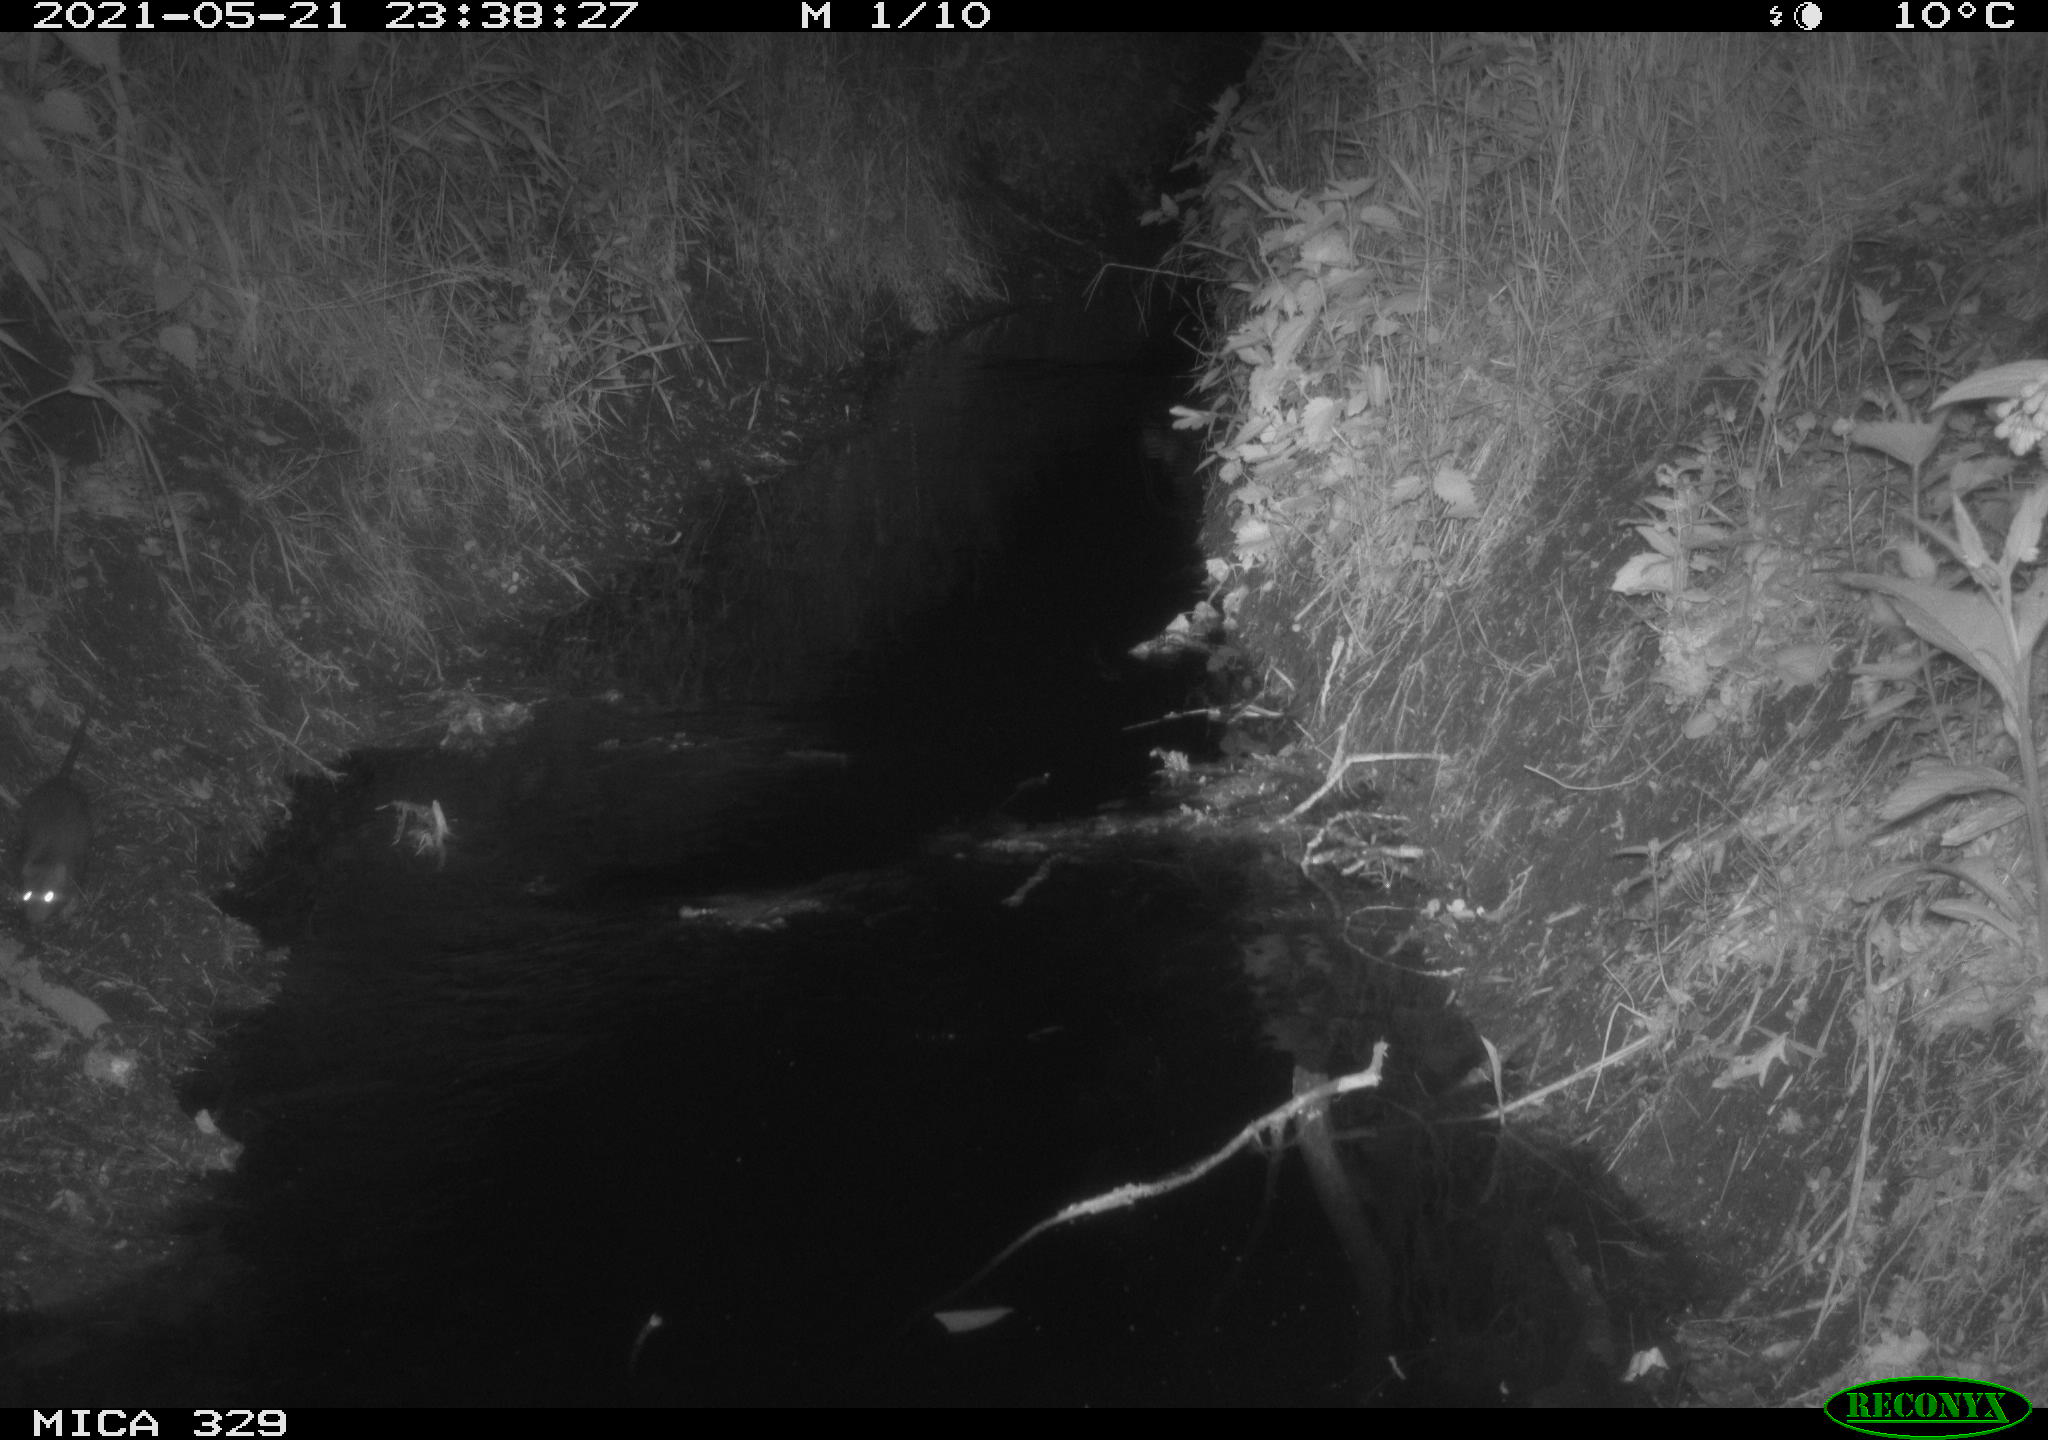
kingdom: Animalia
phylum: Chordata
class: Mammalia
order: Rodentia
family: Muridae
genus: Rattus
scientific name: Rattus norvegicus
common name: Brown rat
